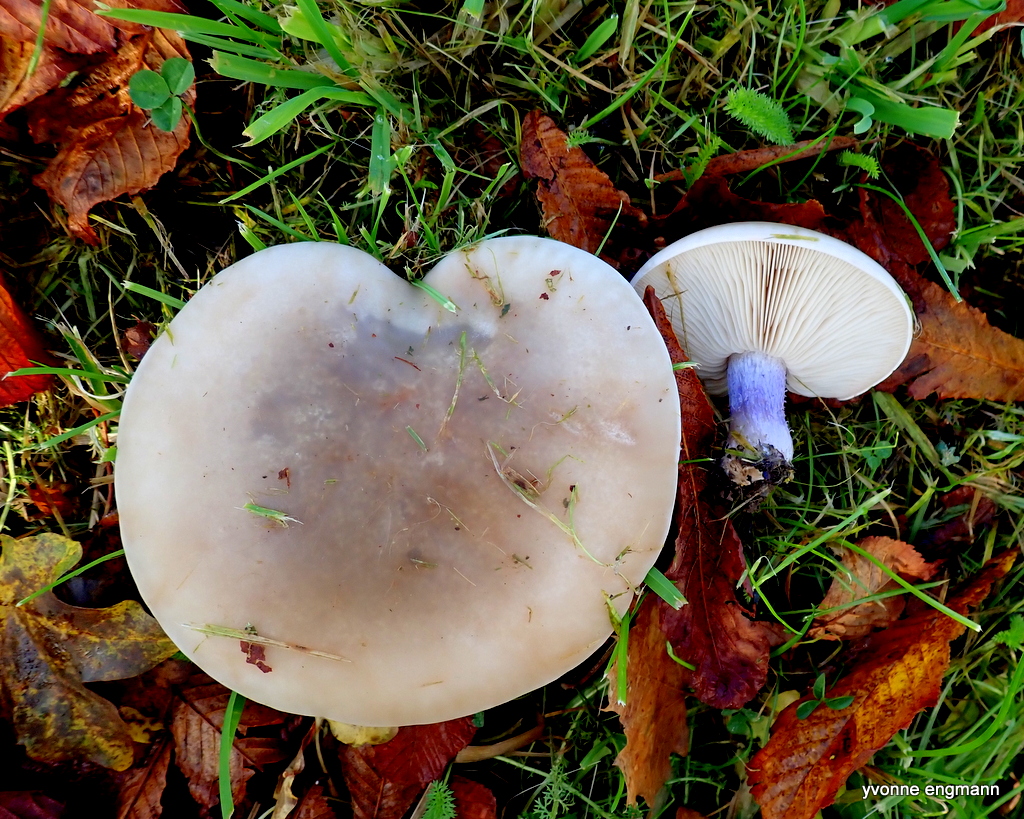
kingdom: Fungi
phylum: Basidiomycota
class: Agaricomycetes
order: Agaricales
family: Tricholomataceae
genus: Lepista
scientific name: Lepista personata
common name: bleg hekseringshat
